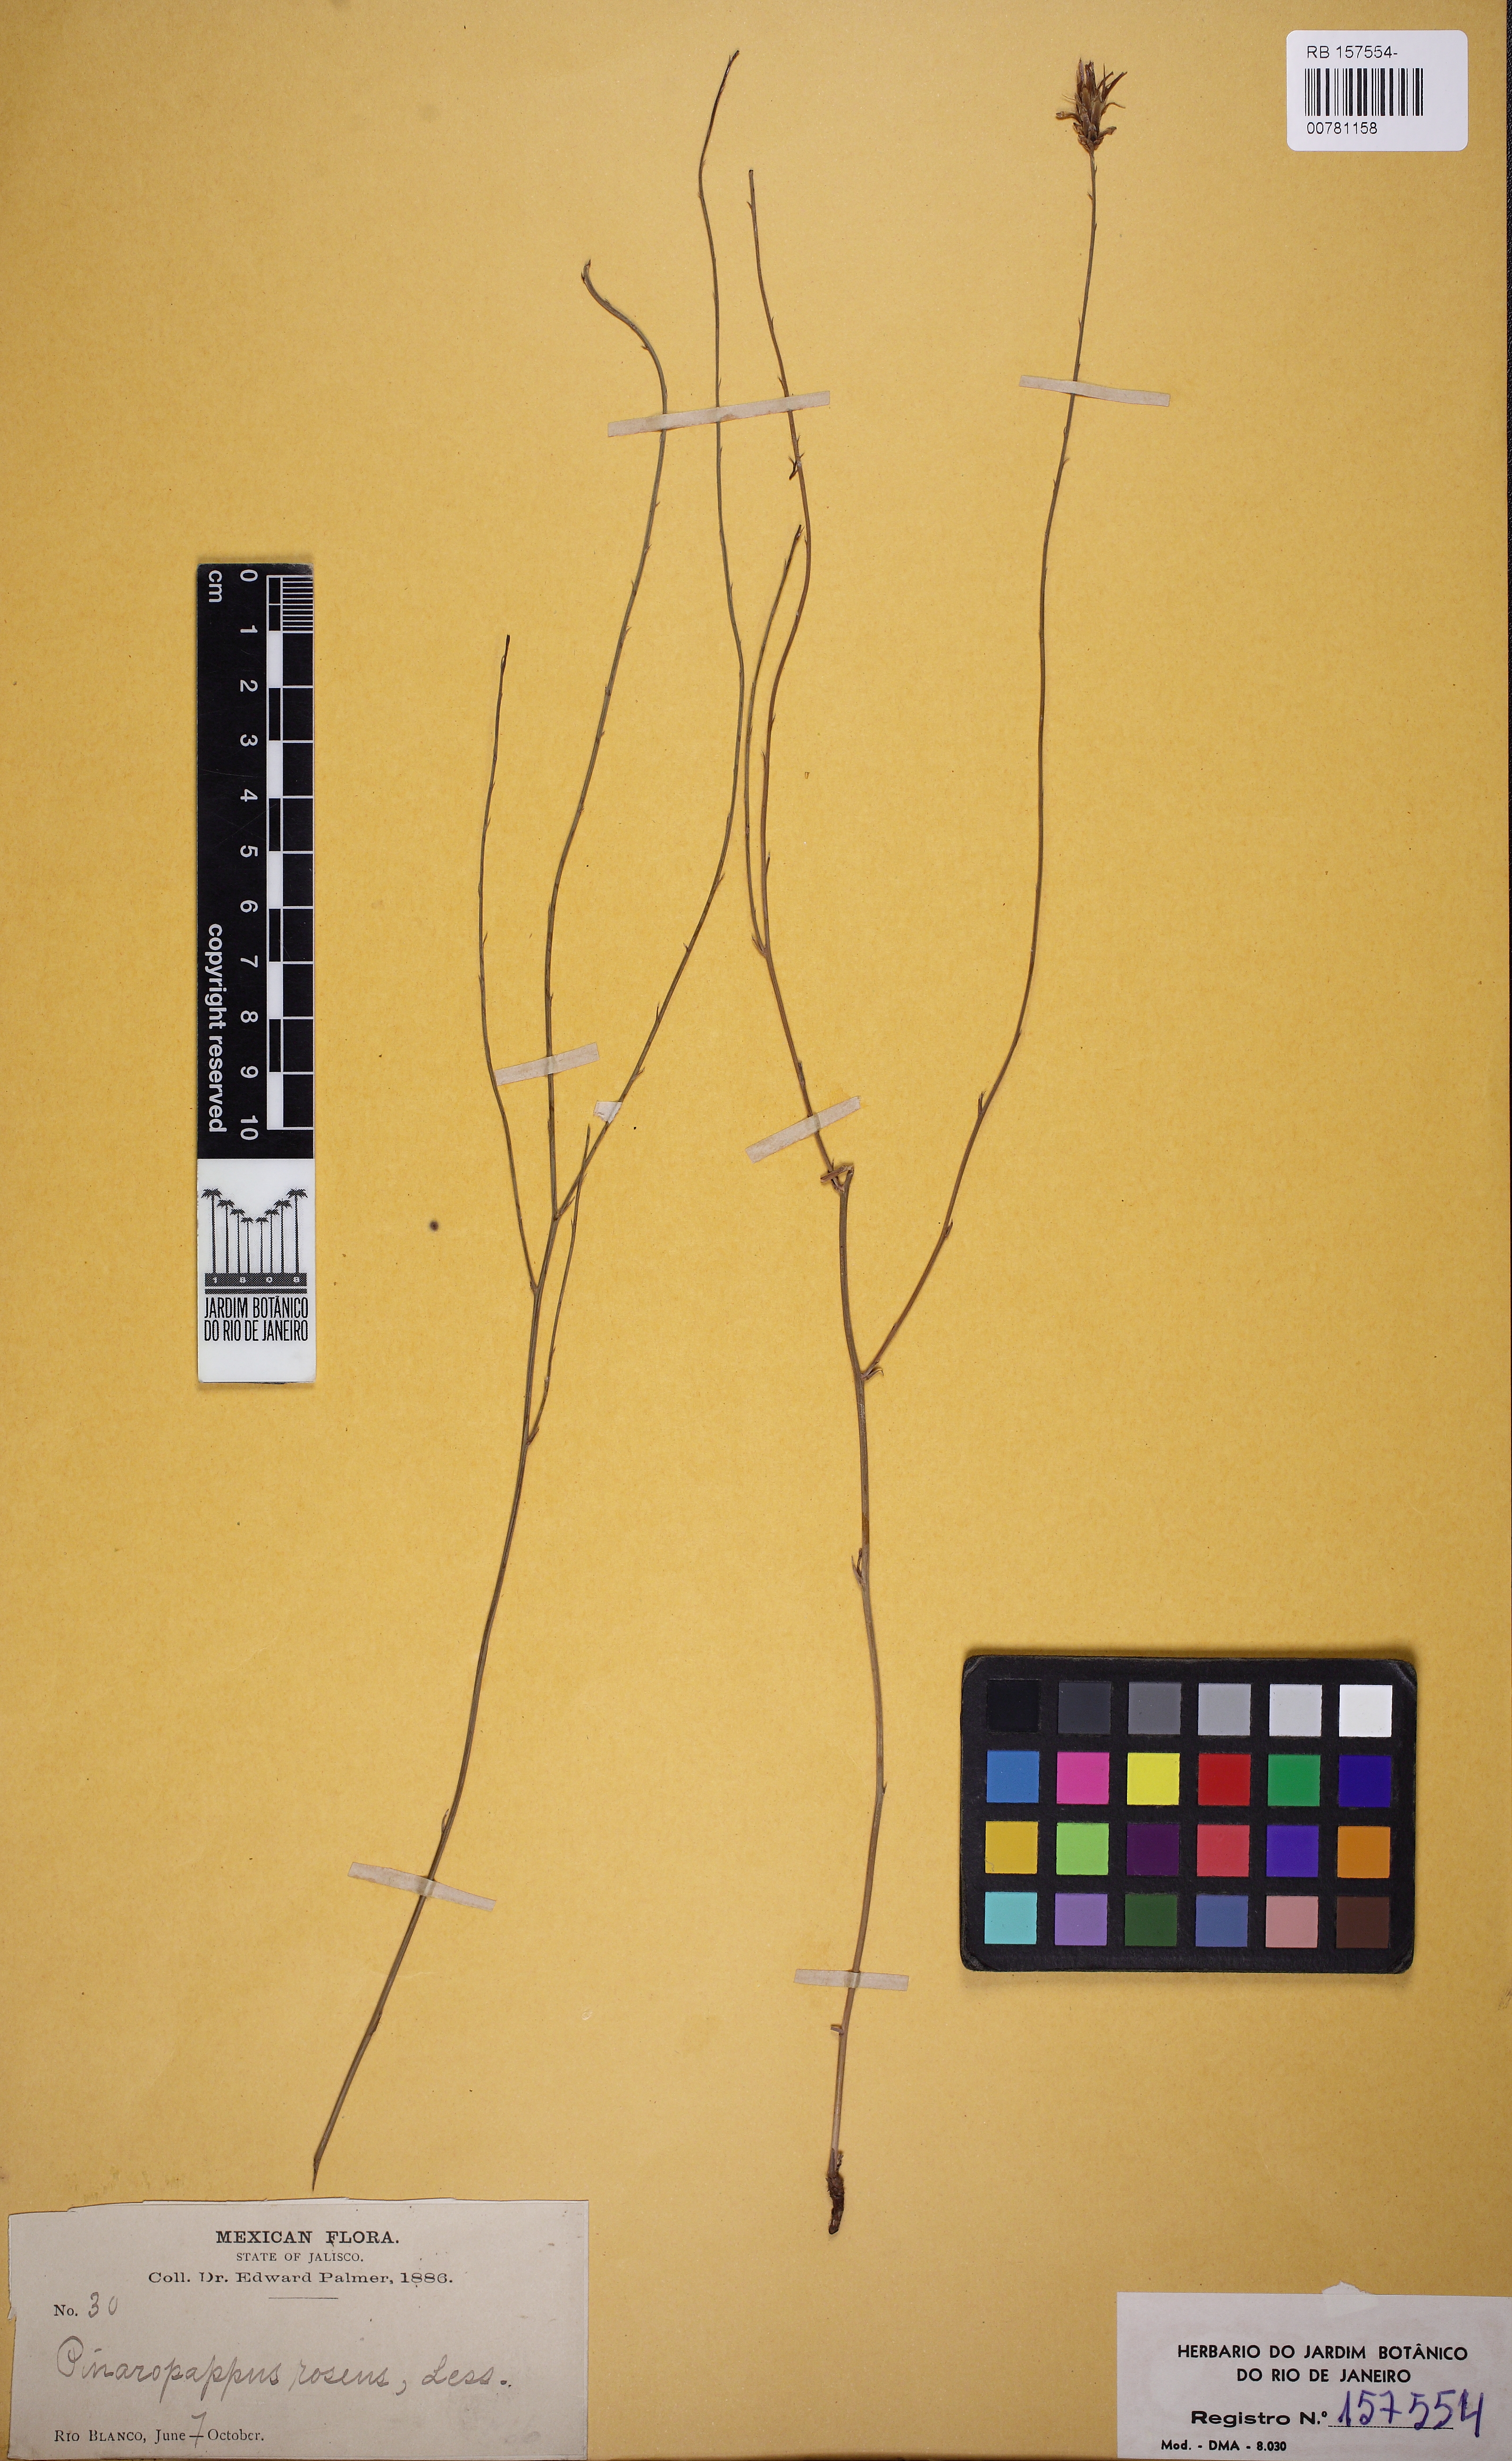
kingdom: Plantae
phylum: Tracheophyta
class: Magnoliopsida
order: Asterales
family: Asteraceae
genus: Pinaropappus
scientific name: Pinaropappus roseus
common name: Rock-lettuce
